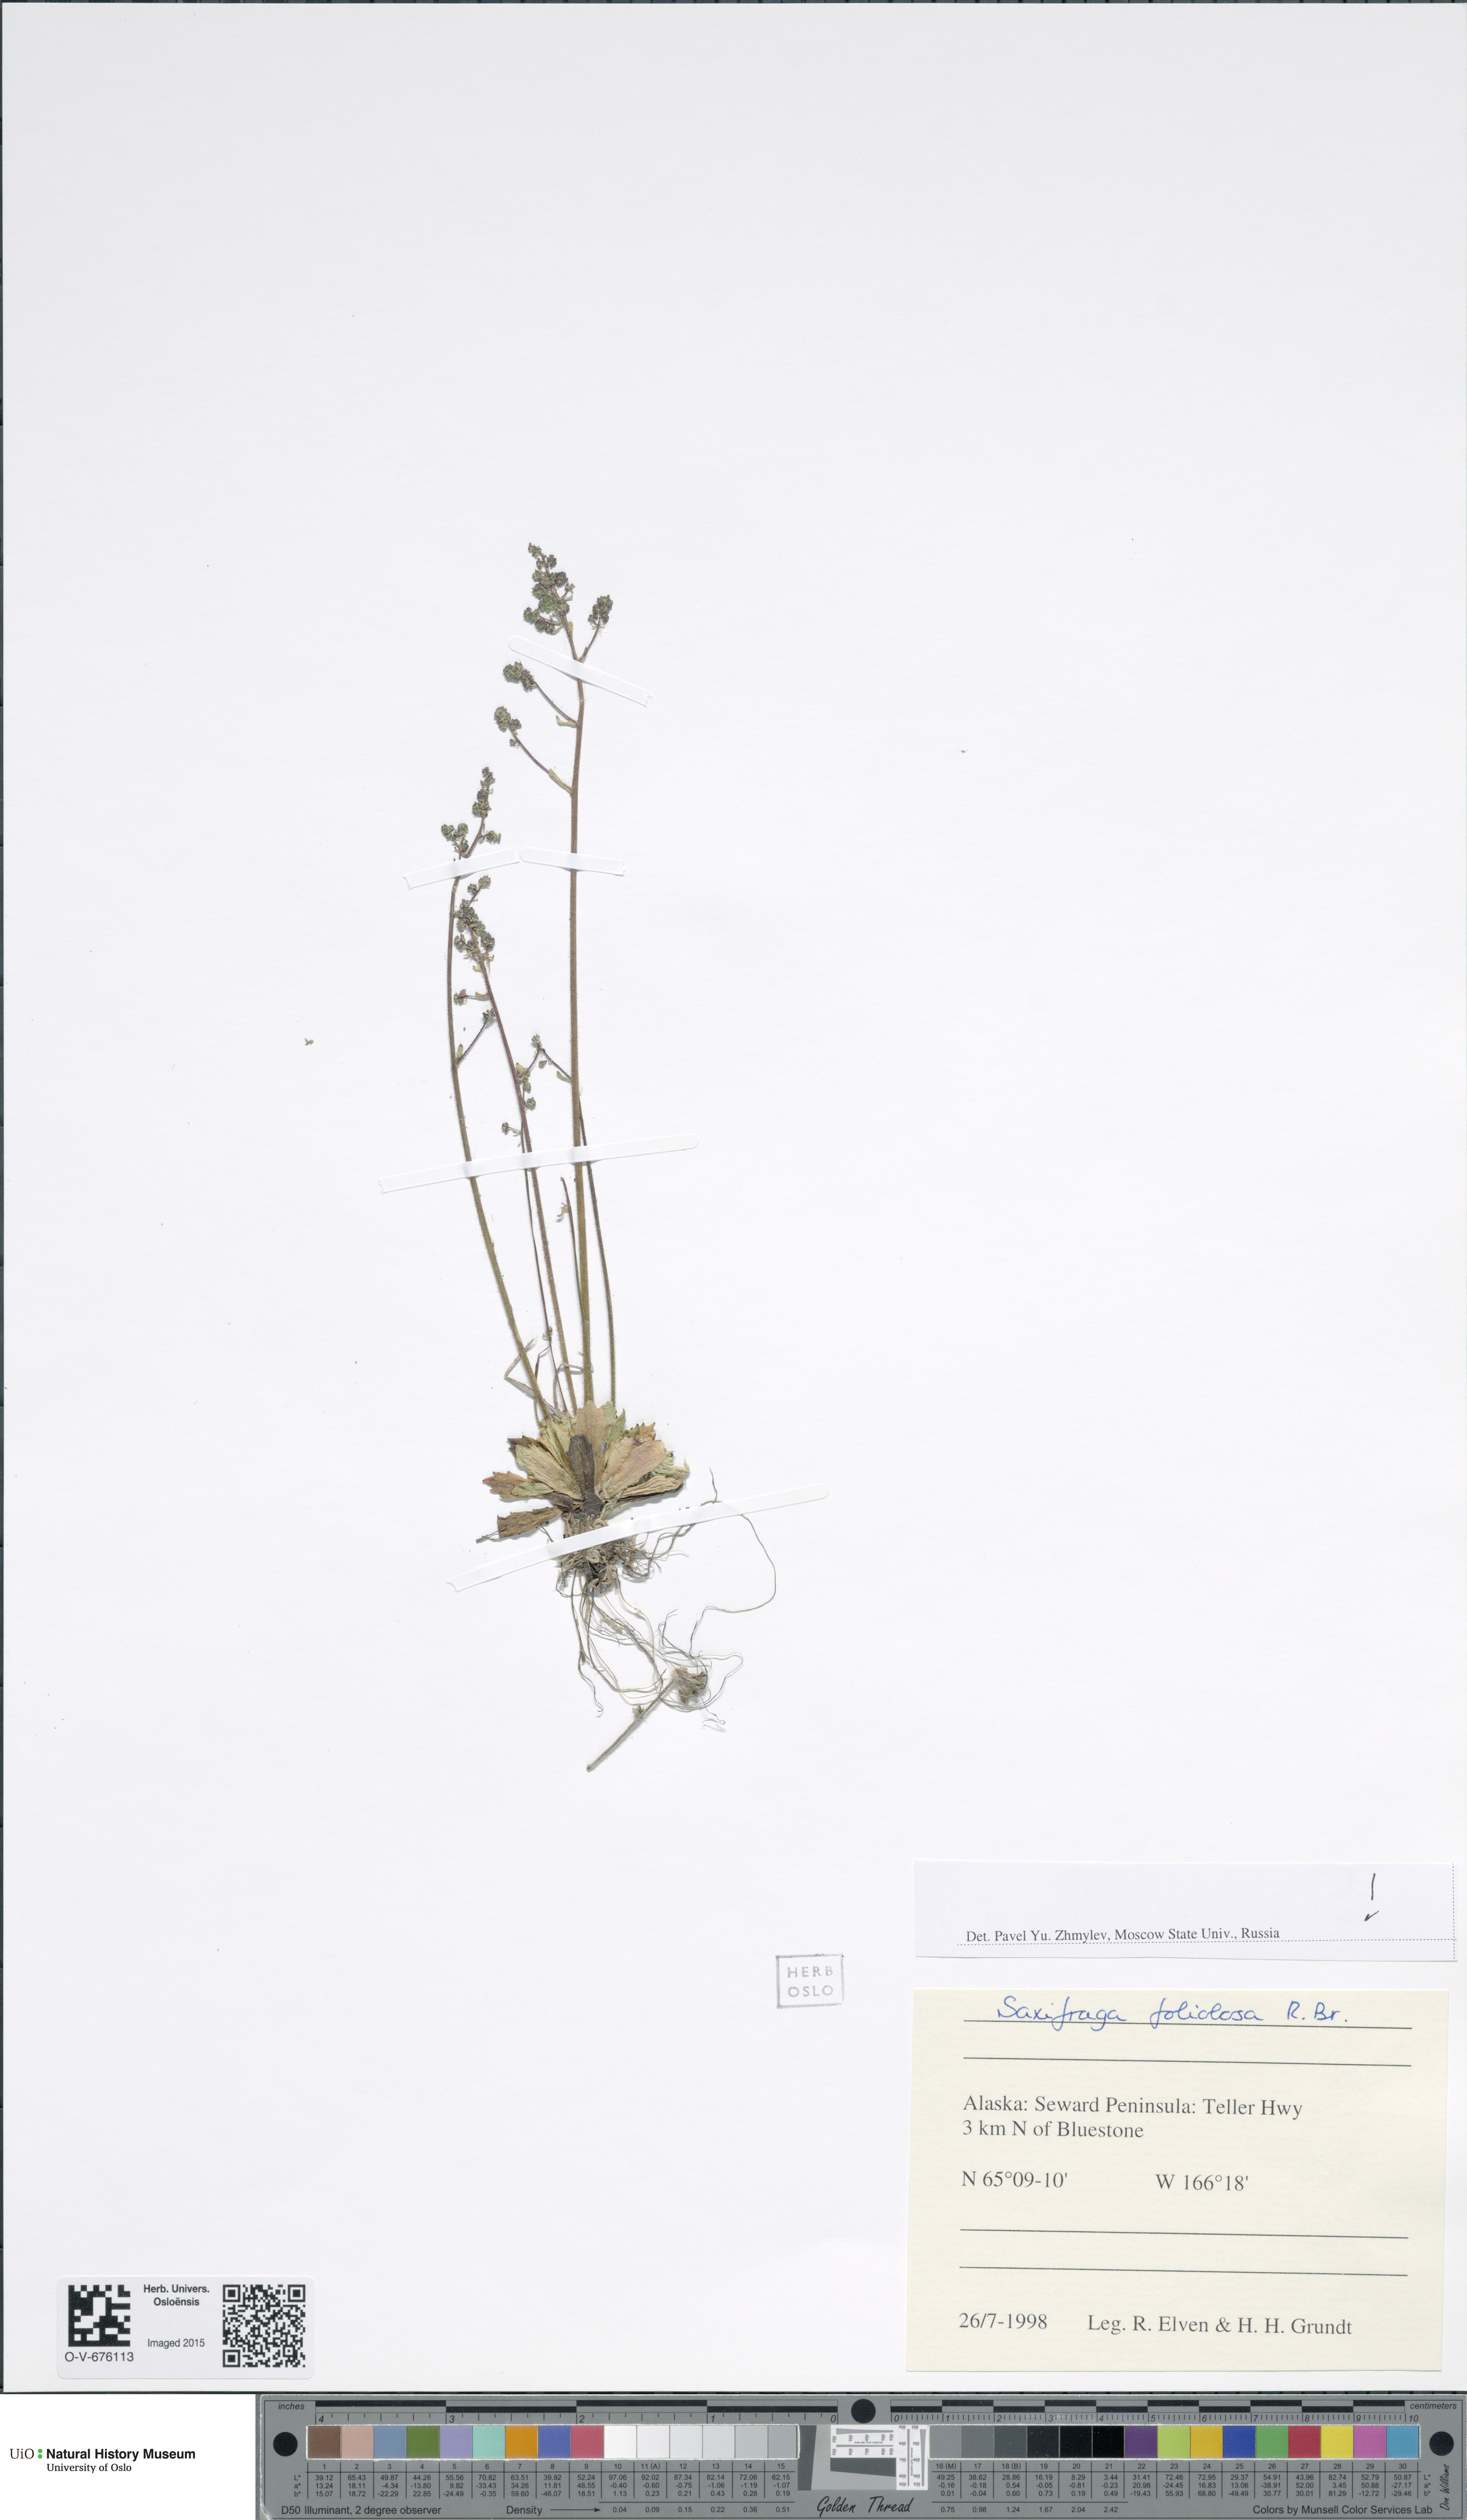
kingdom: Plantae
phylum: Tracheophyta
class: Magnoliopsida
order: Saxifragales
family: Saxifragaceae
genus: Micranthes
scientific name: Micranthes foliolosa
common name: Leafystem saxifrage
